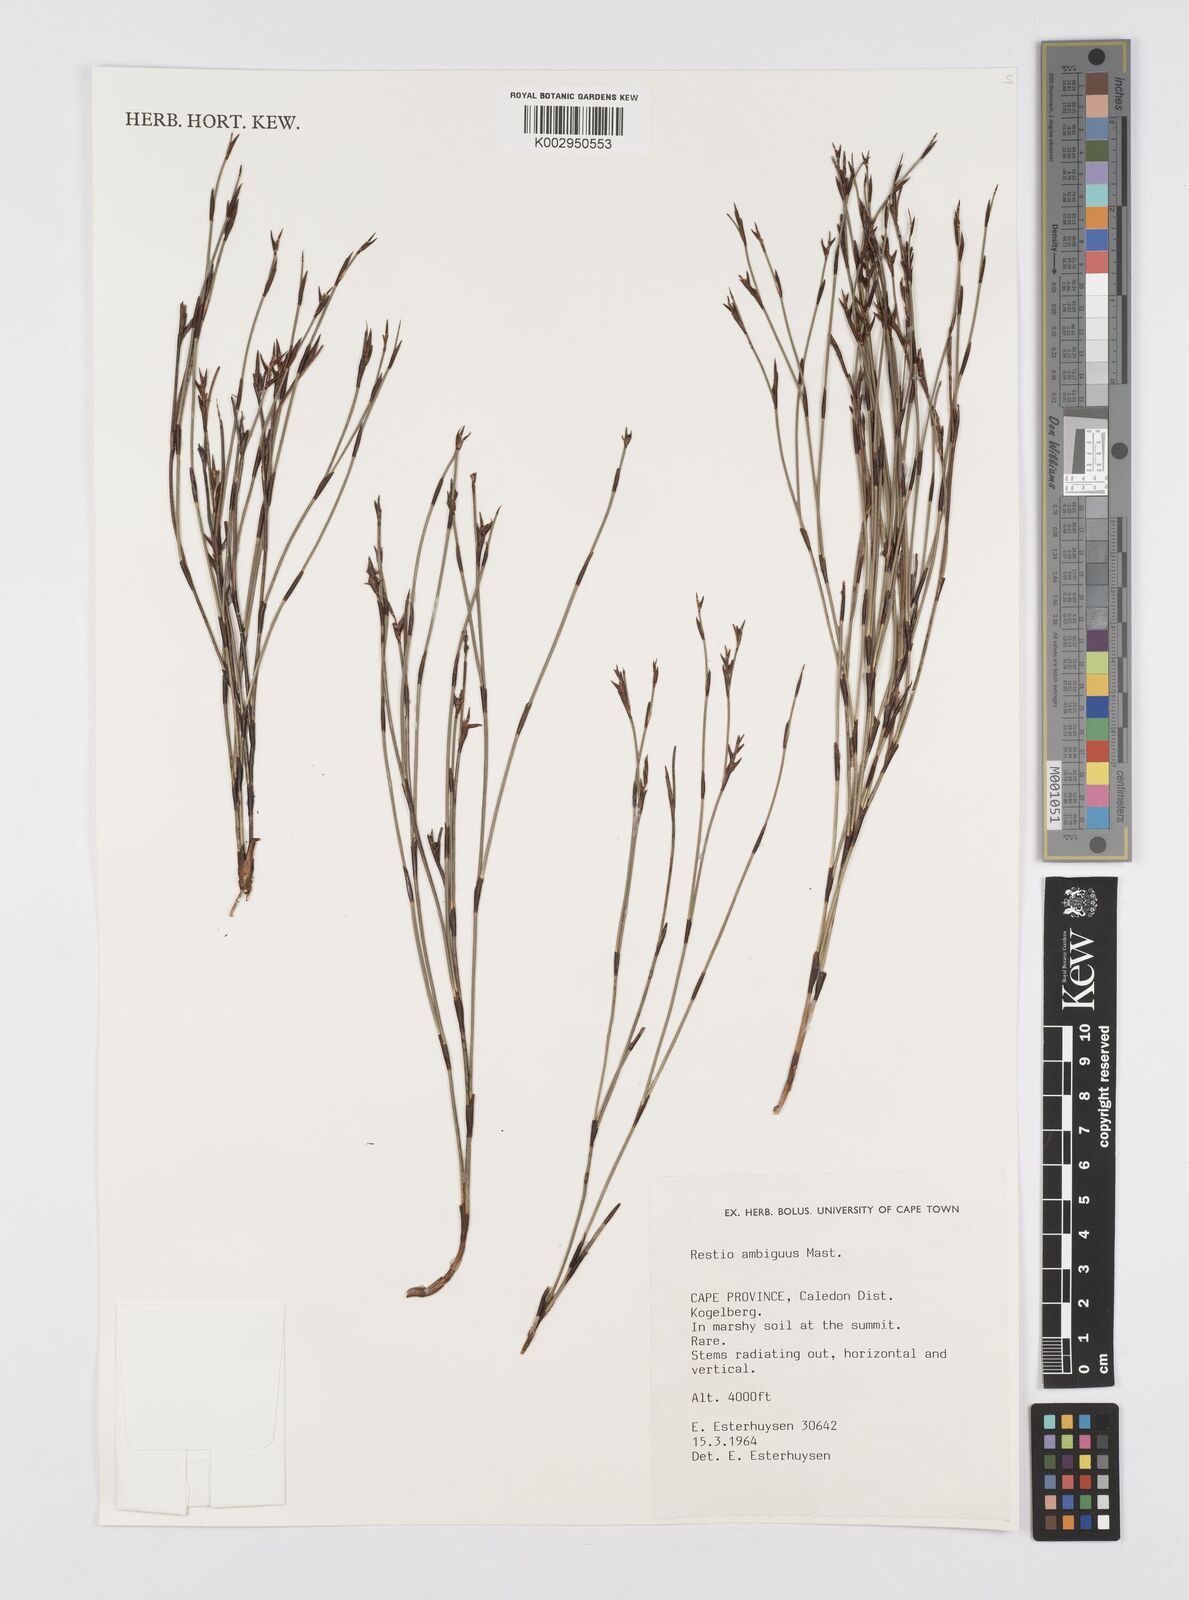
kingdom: Plantae
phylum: Tracheophyta
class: Liliopsida
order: Poales
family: Restionaceae
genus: Soroveta
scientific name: Soroveta ambigua
